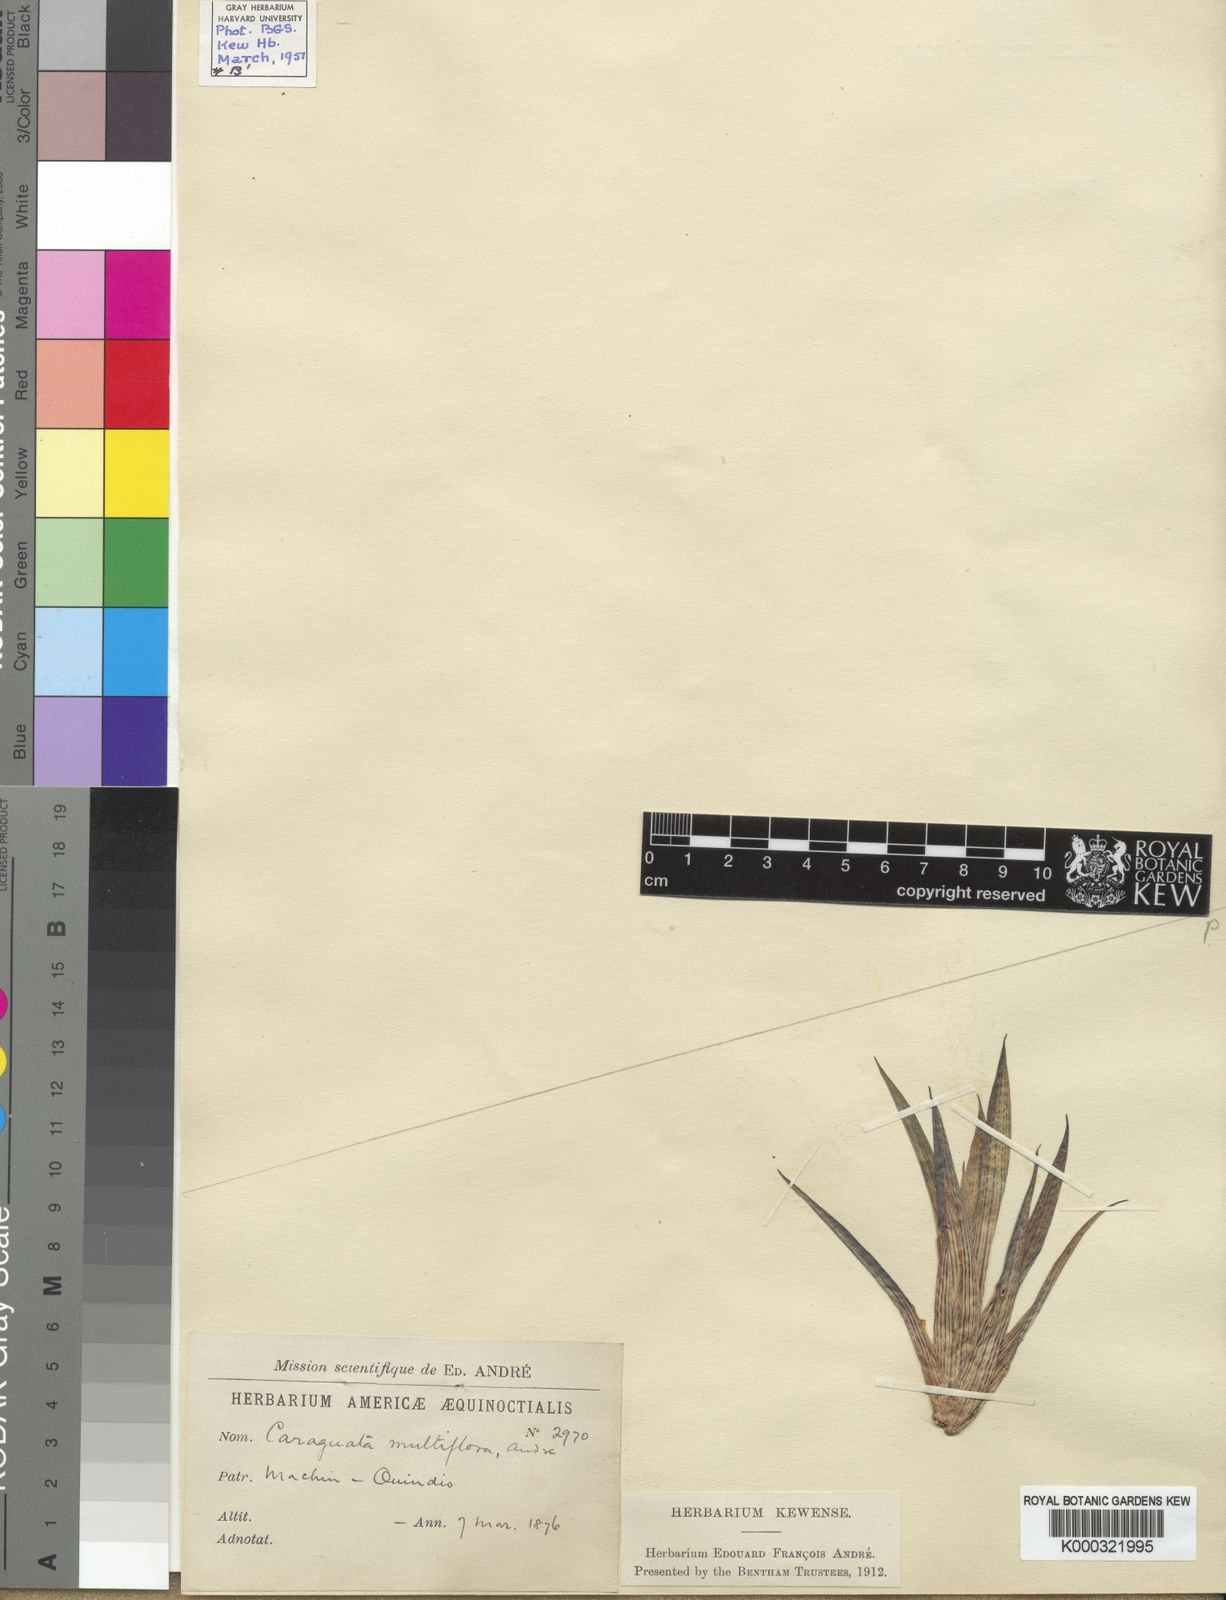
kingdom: Plantae
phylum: Tracheophyta
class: Liliopsida
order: Poales
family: Bromeliaceae
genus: Guzmania
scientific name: Guzmania multiflora
